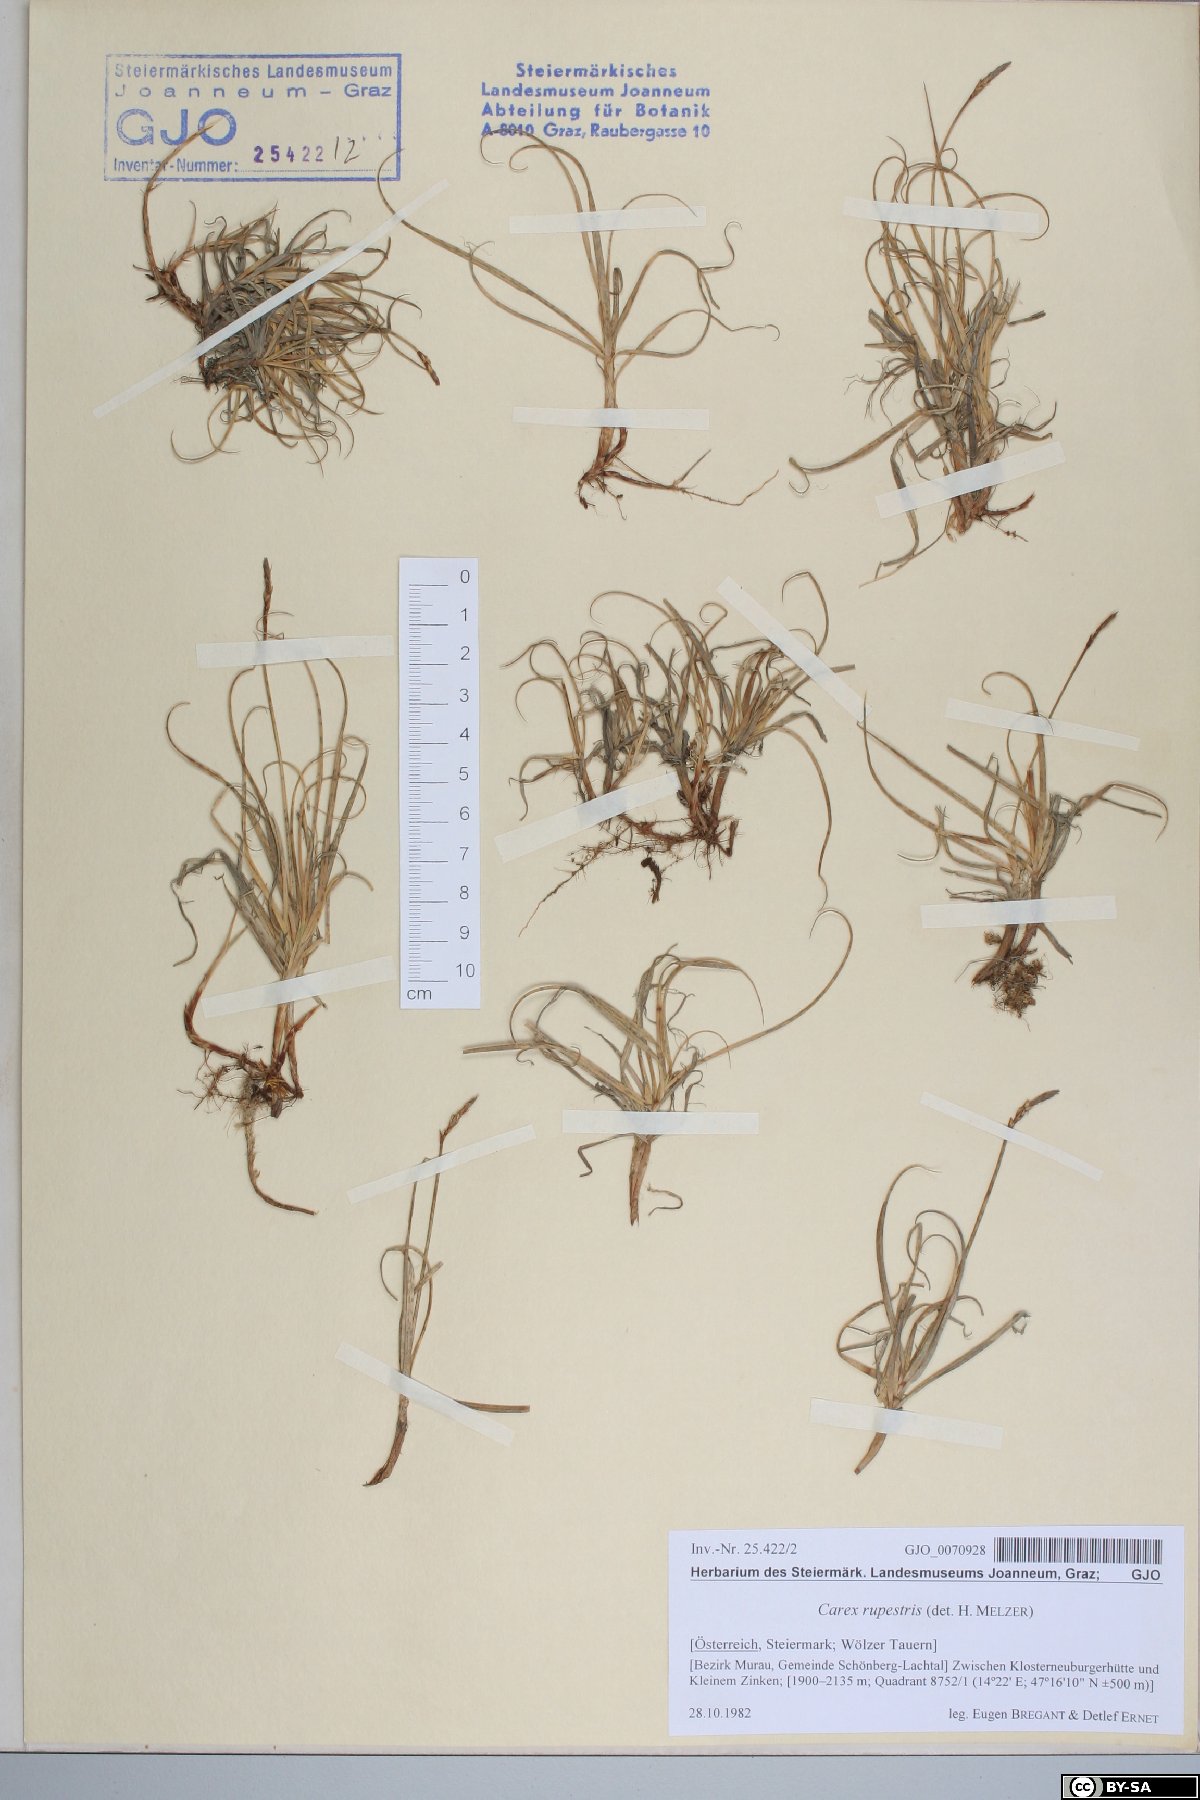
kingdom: Plantae
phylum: Tracheophyta
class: Liliopsida
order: Poales
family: Cyperaceae
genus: Carex
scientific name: Carex rupestris
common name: Rock sedge
